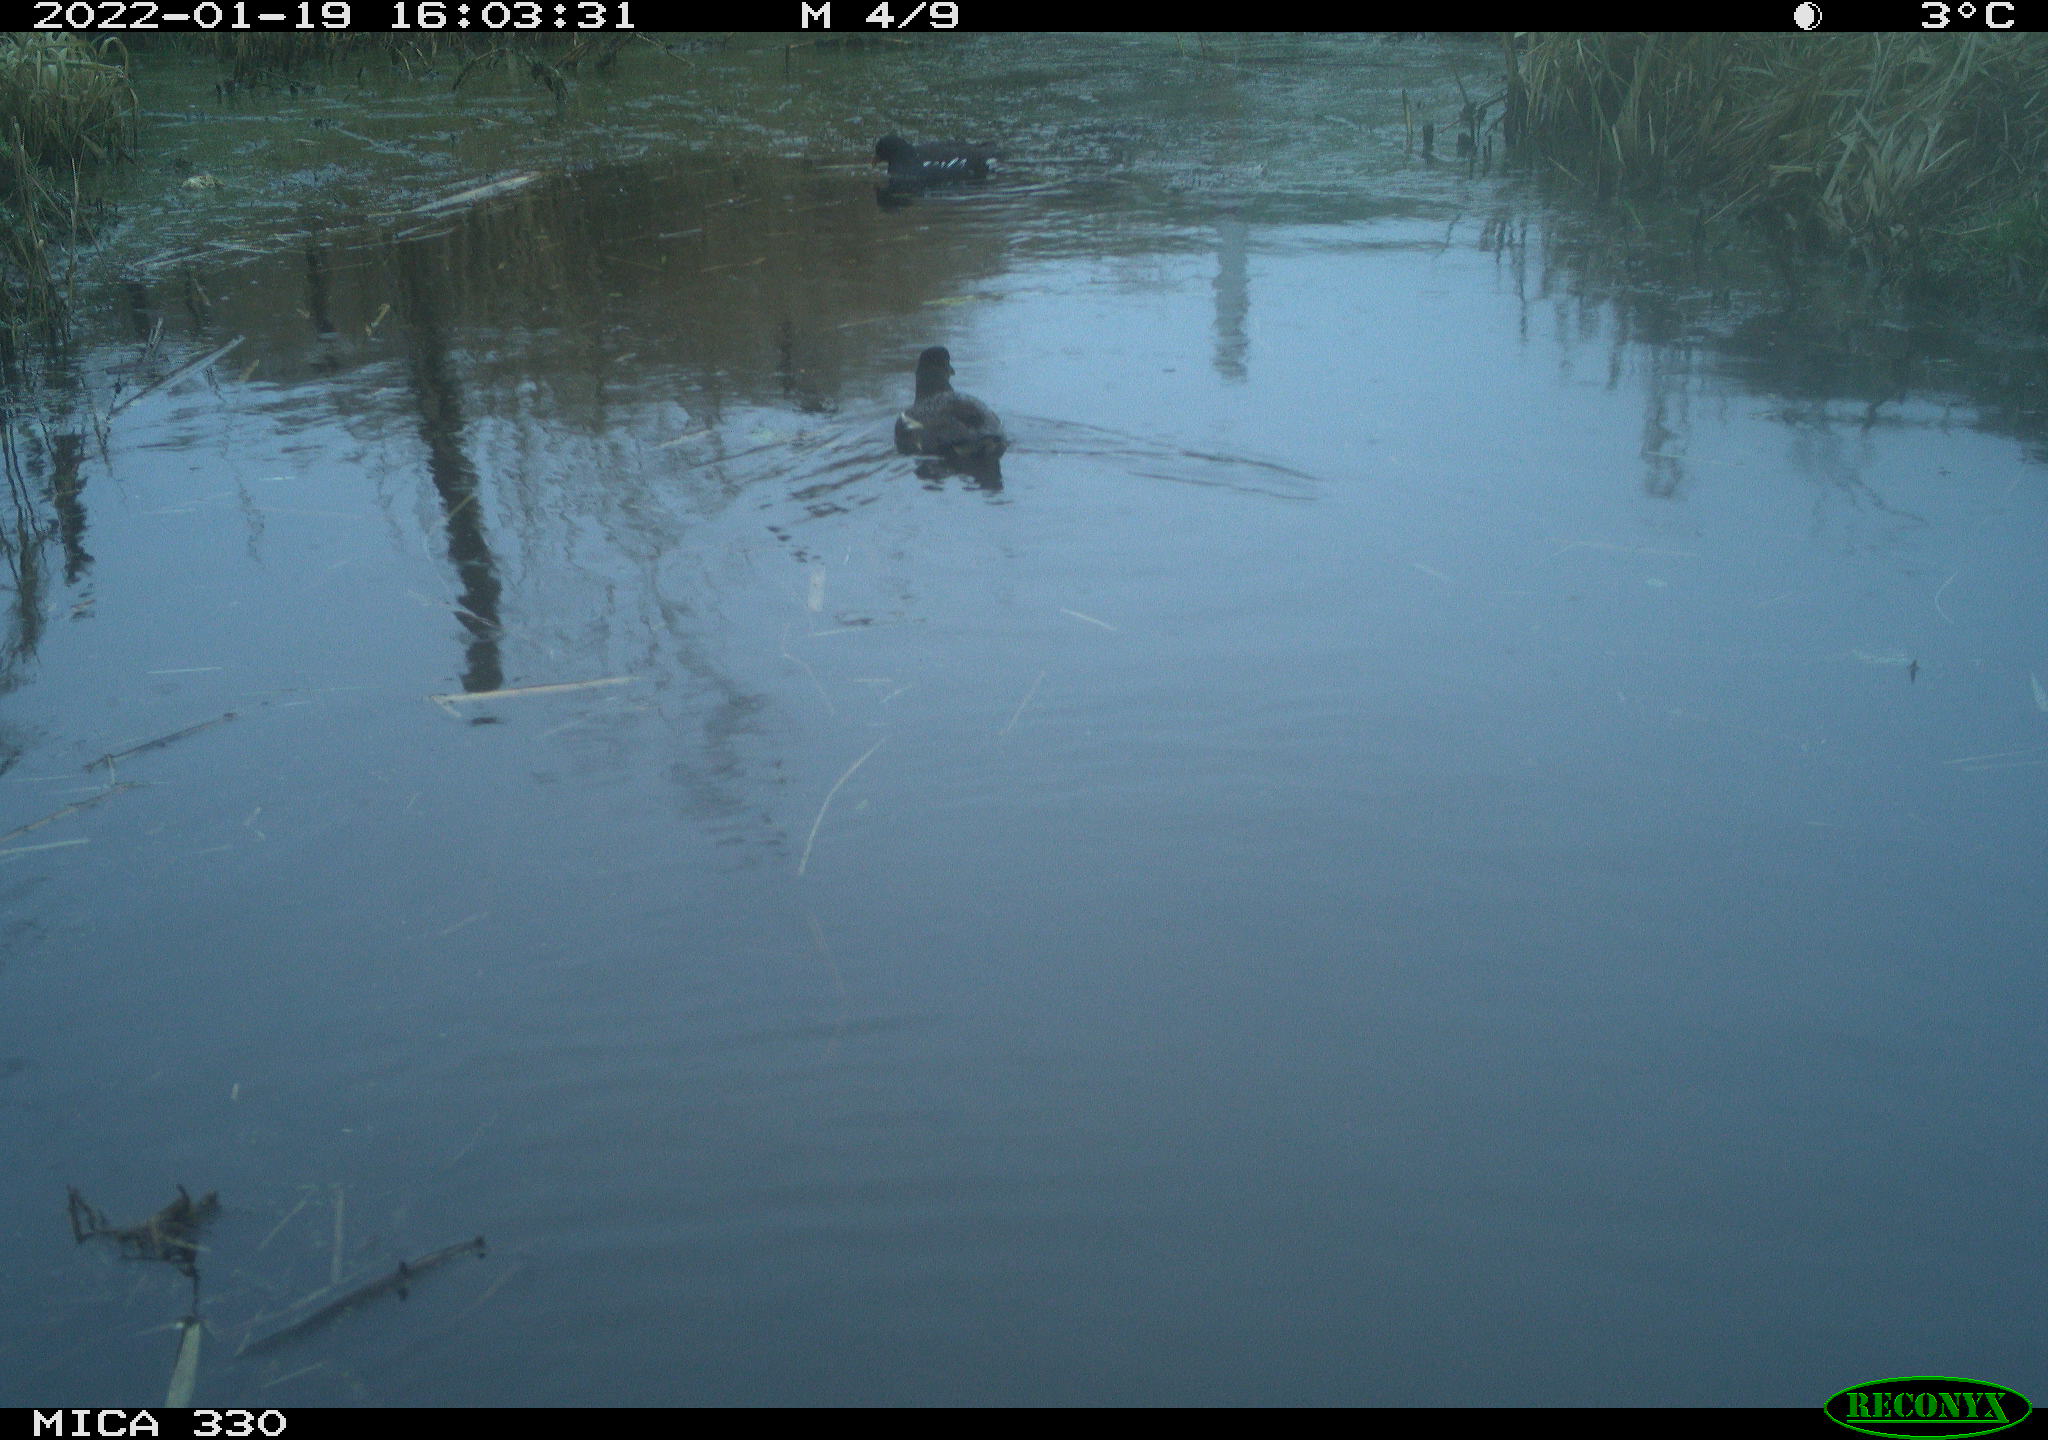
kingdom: Animalia
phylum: Chordata
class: Aves
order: Gruiformes
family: Rallidae
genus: Gallinula
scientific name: Gallinula chloropus
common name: Common moorhen
